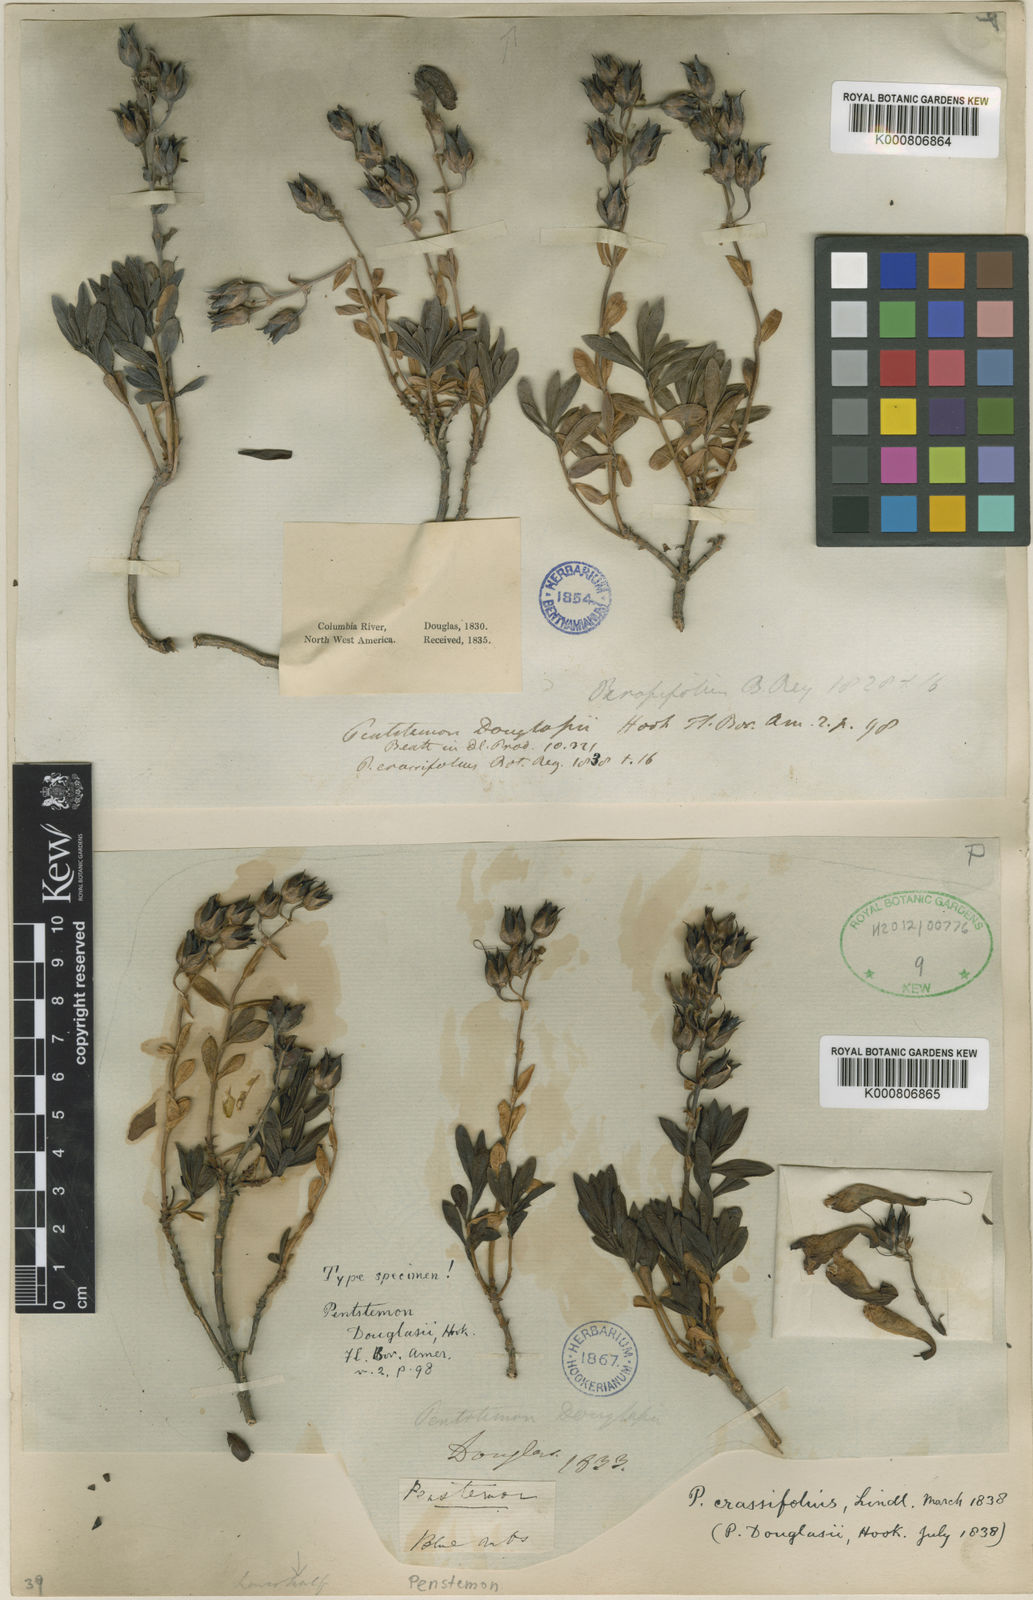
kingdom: Plantae
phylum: Tracheophyta
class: Magnoliopsida
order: Lamiales
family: Plantaginaceae
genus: Penstemon
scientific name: Penstemon fruticosus
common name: Bush penstemon
